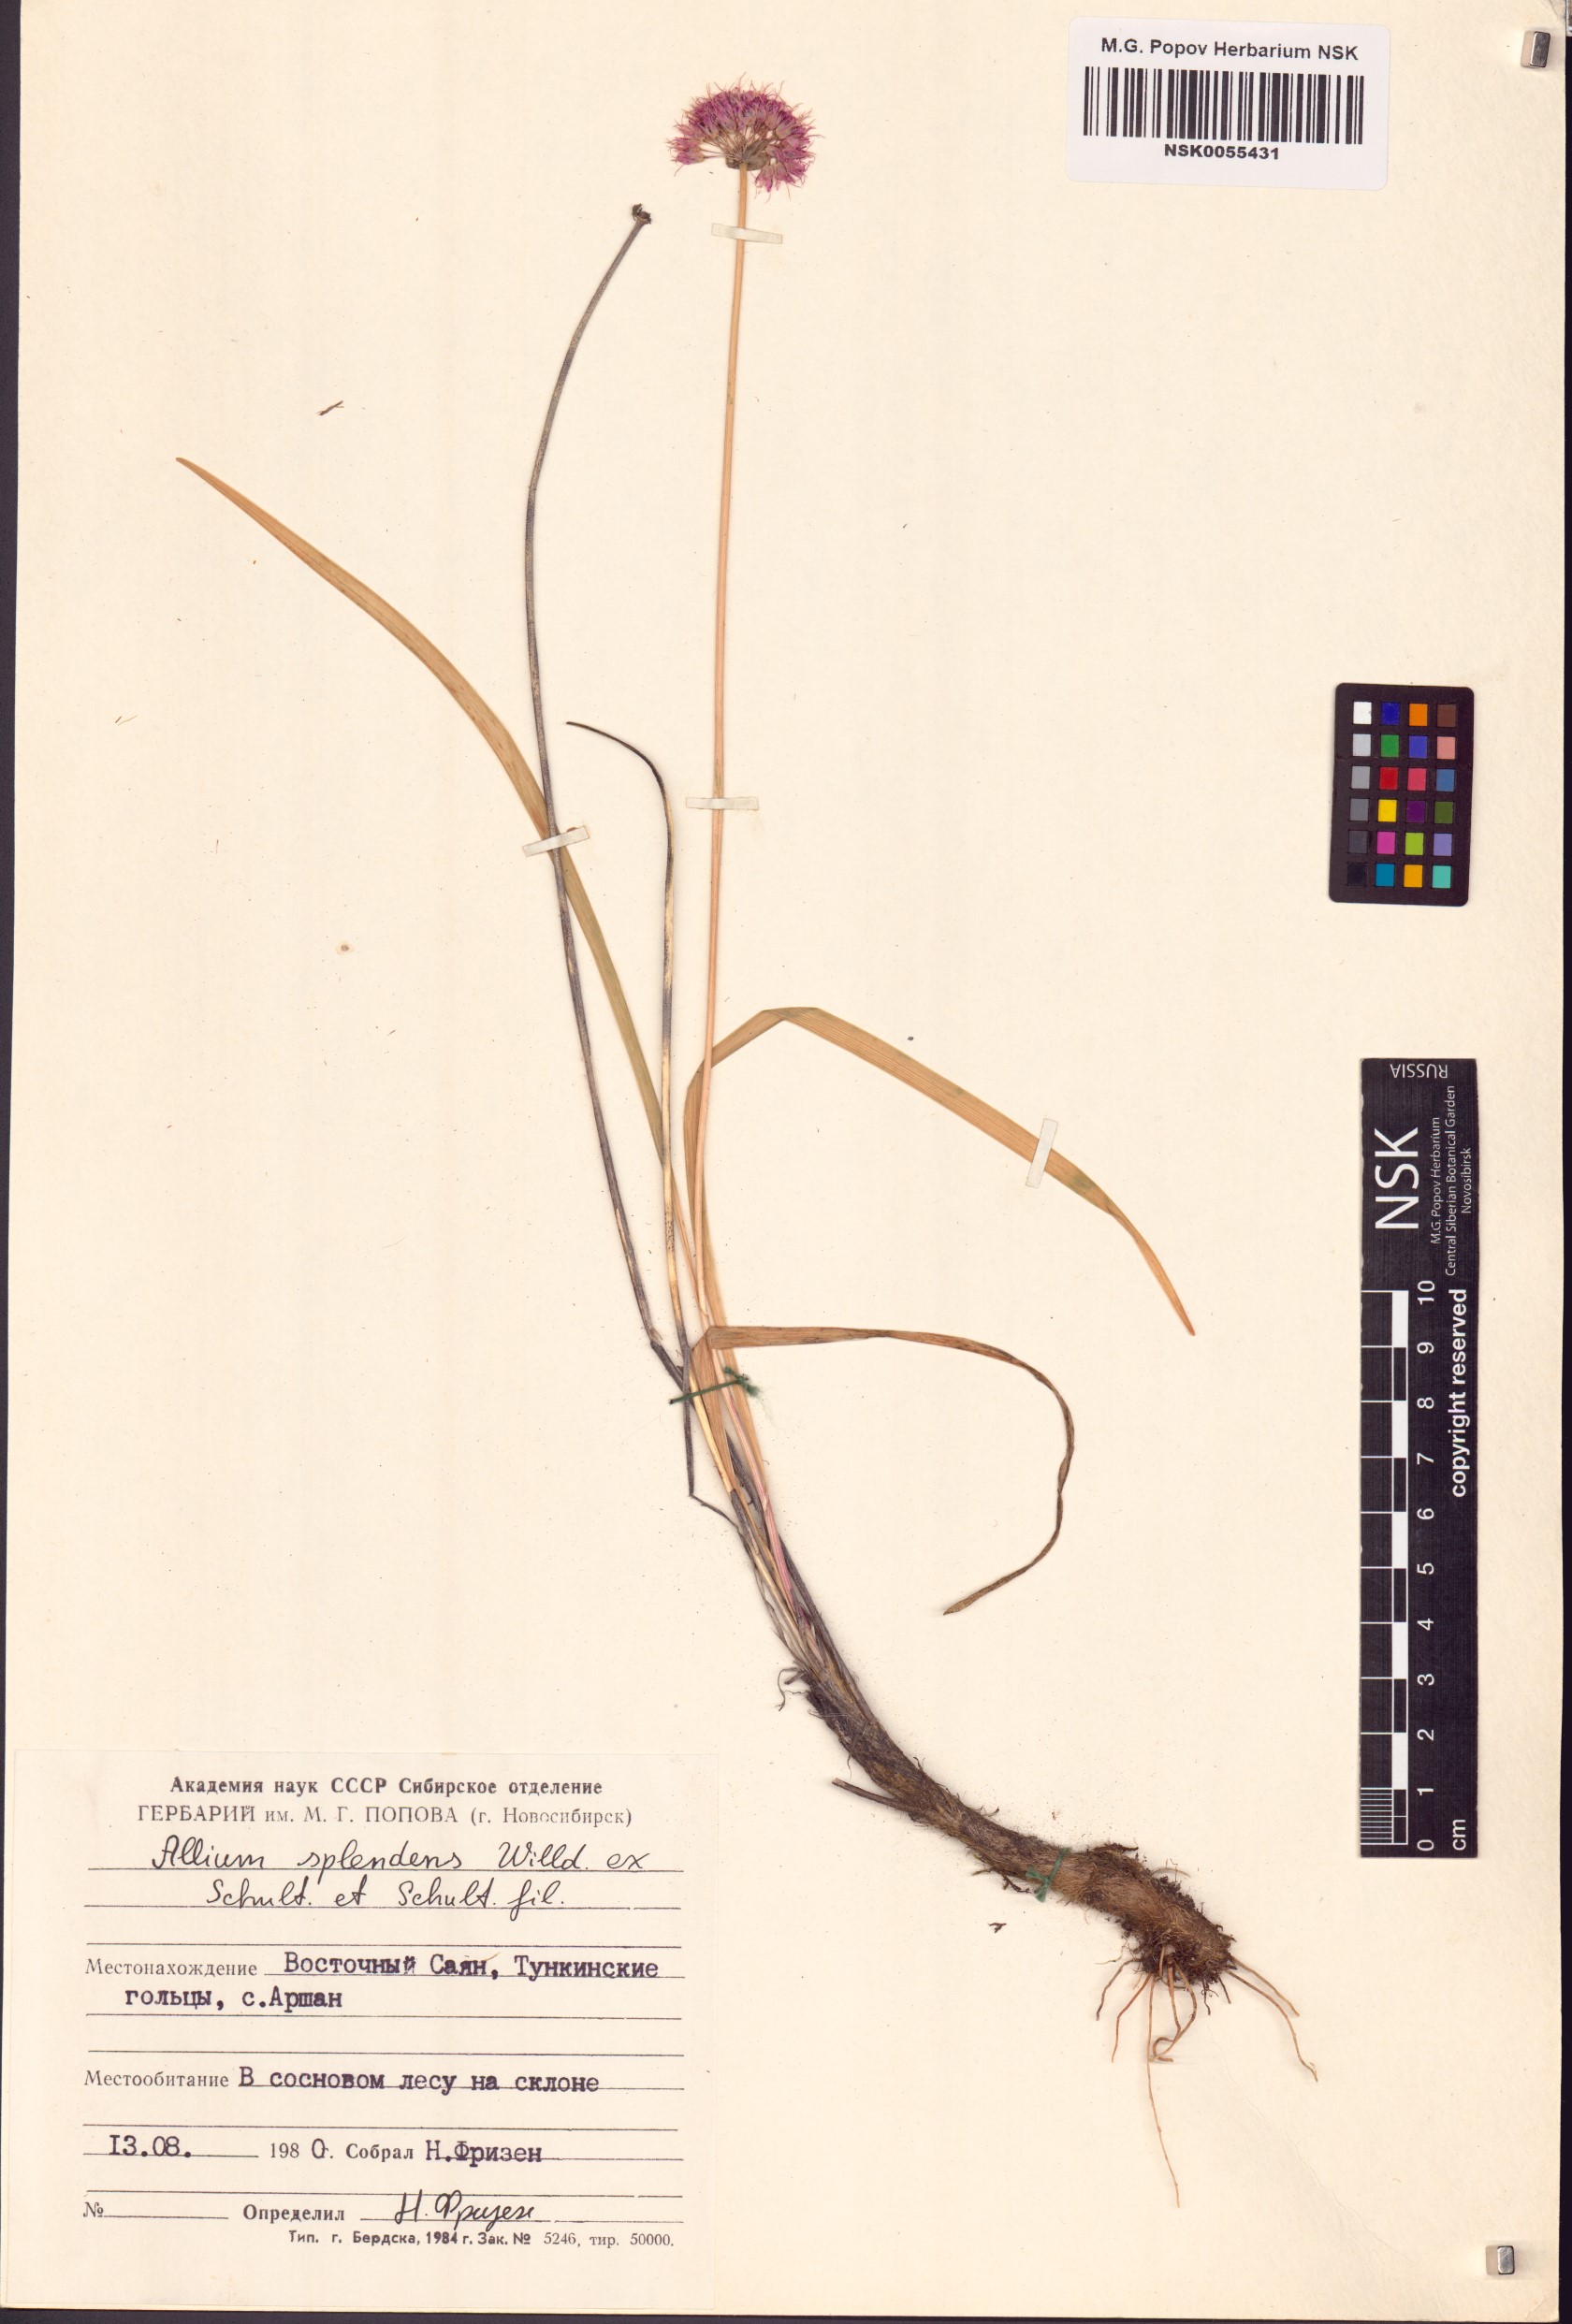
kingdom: Plantae
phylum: Tracheophyta
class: Liliopsida
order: Asparagales
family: Amaryllidaceae
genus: Allium
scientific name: Allium splendens
